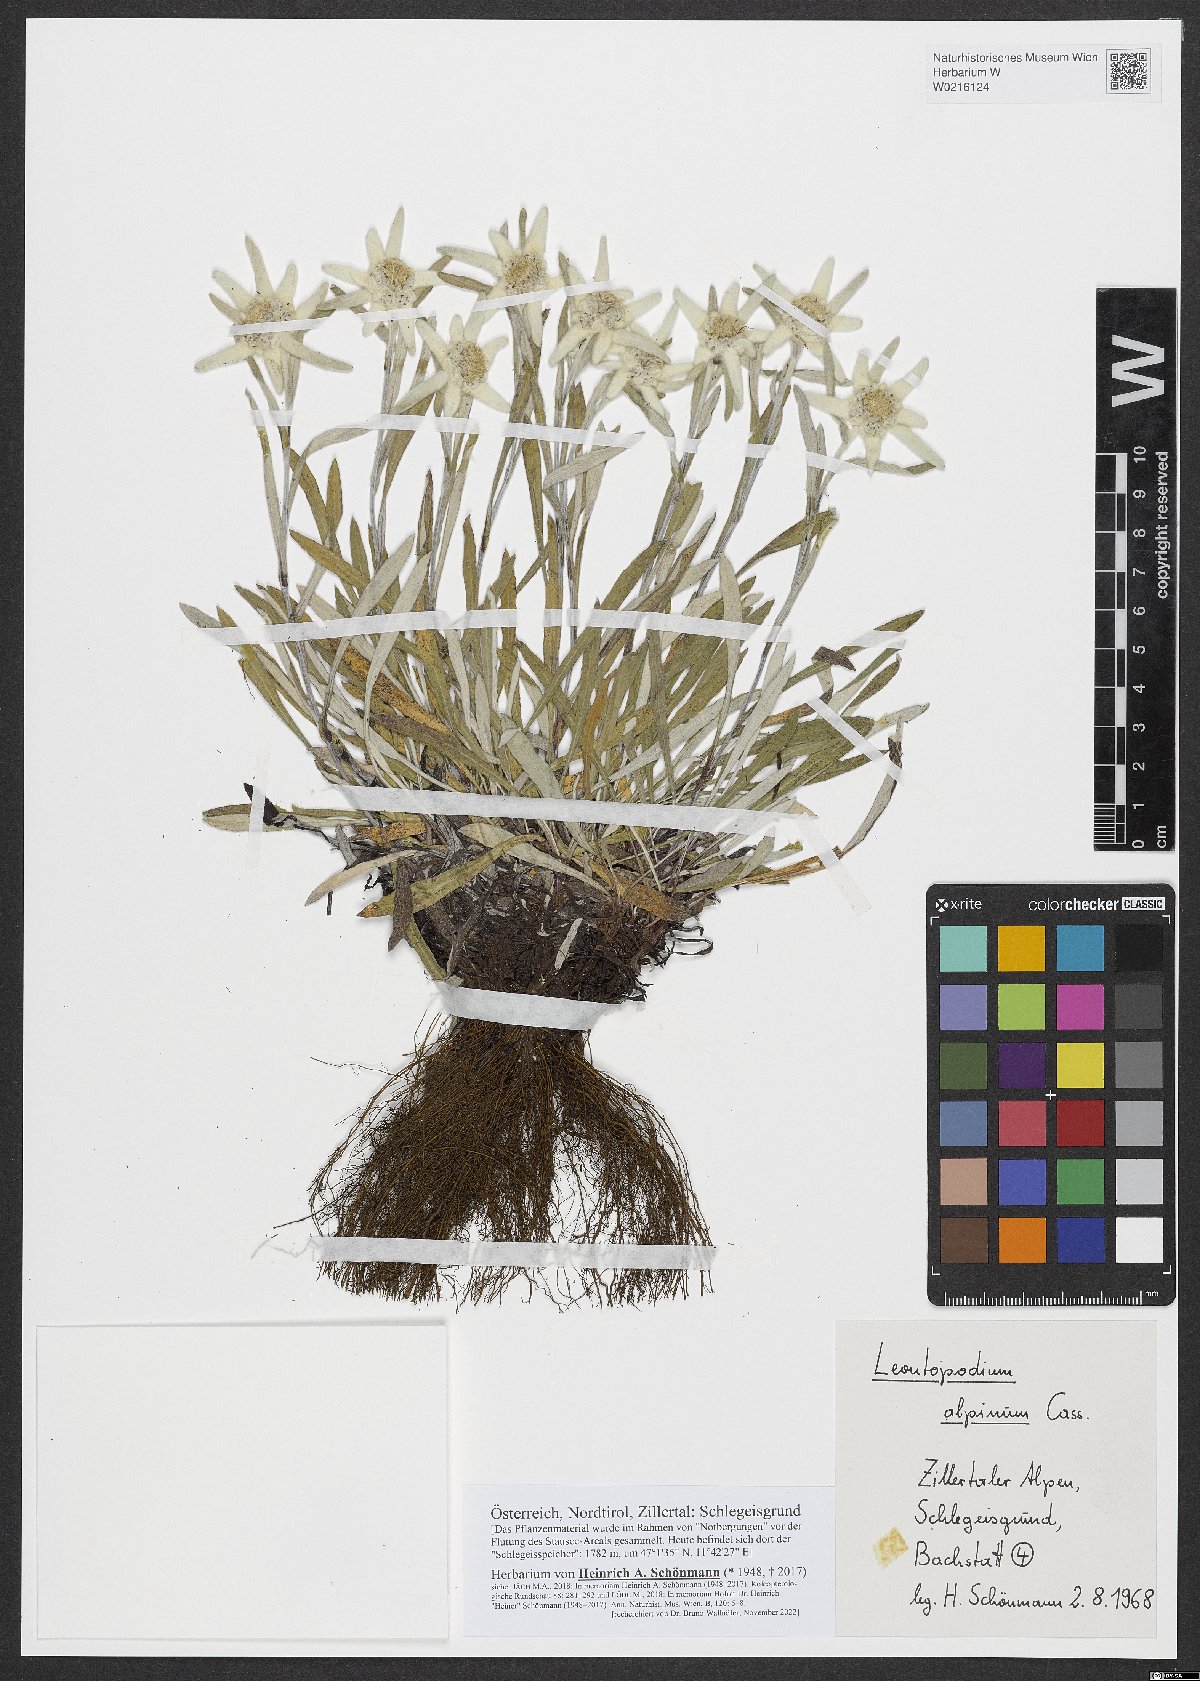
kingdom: Plantae
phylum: Tracheophyta
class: Magnoliopsida
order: Asterales
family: Asteraceae
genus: Leontopodium
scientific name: Leontopodium nivale
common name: Edelweiss
